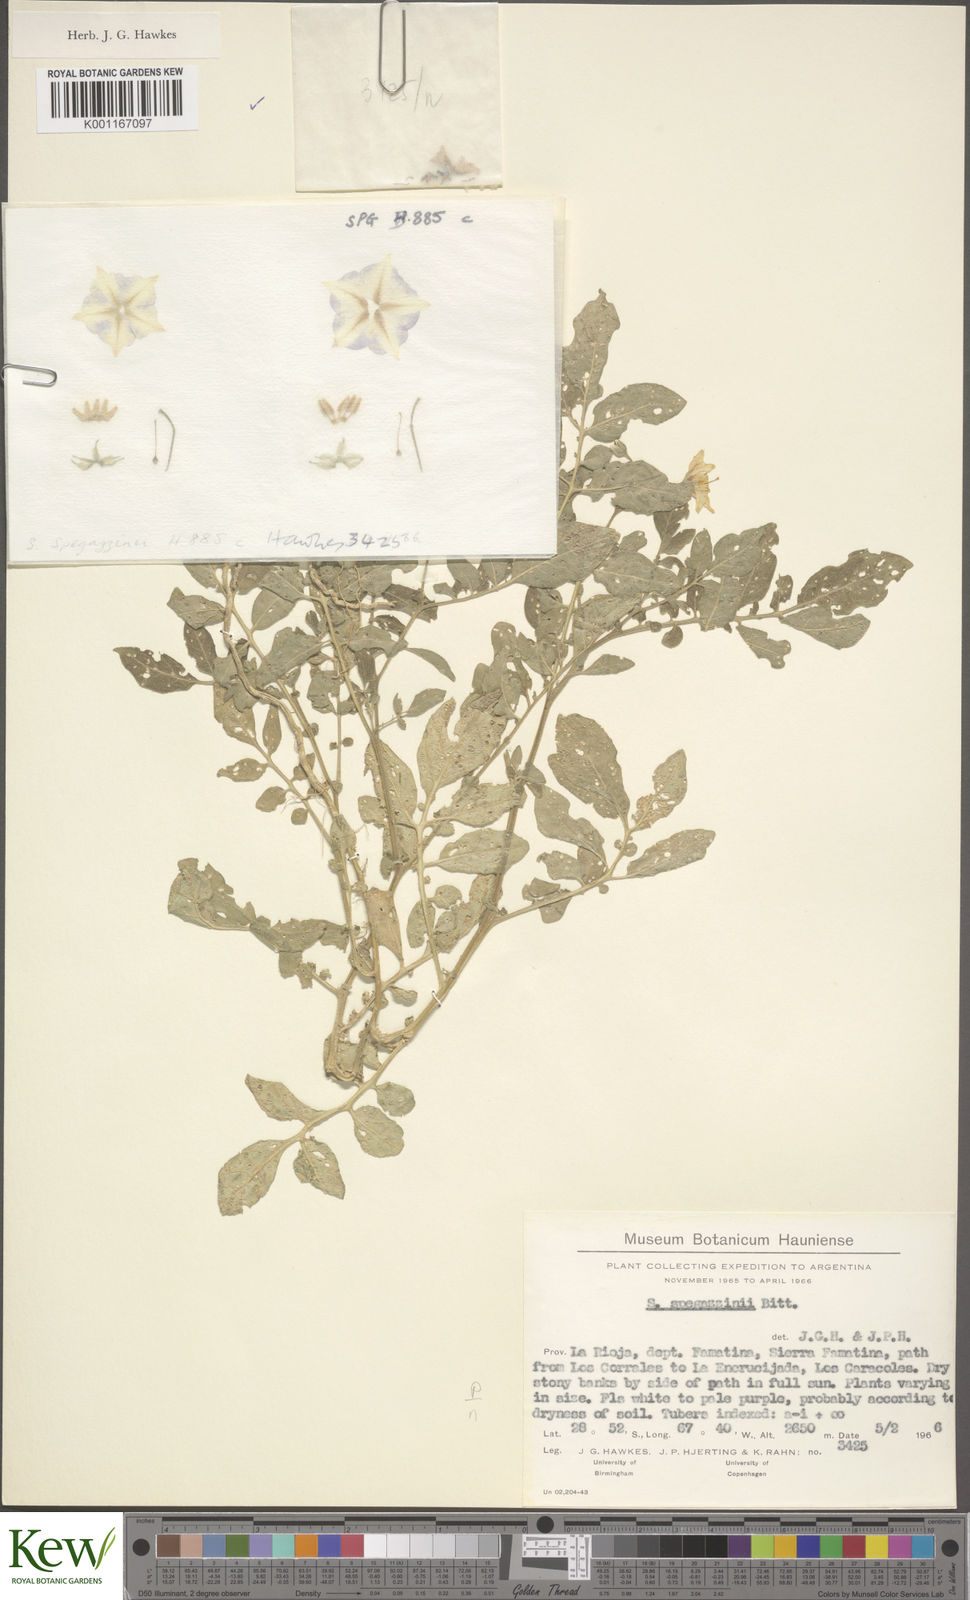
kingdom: Plantae
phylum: Tracheophyta
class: Magnoliopsida
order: Solanales
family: Solanaceae
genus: Solanum
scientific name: Solanum brevicaule
